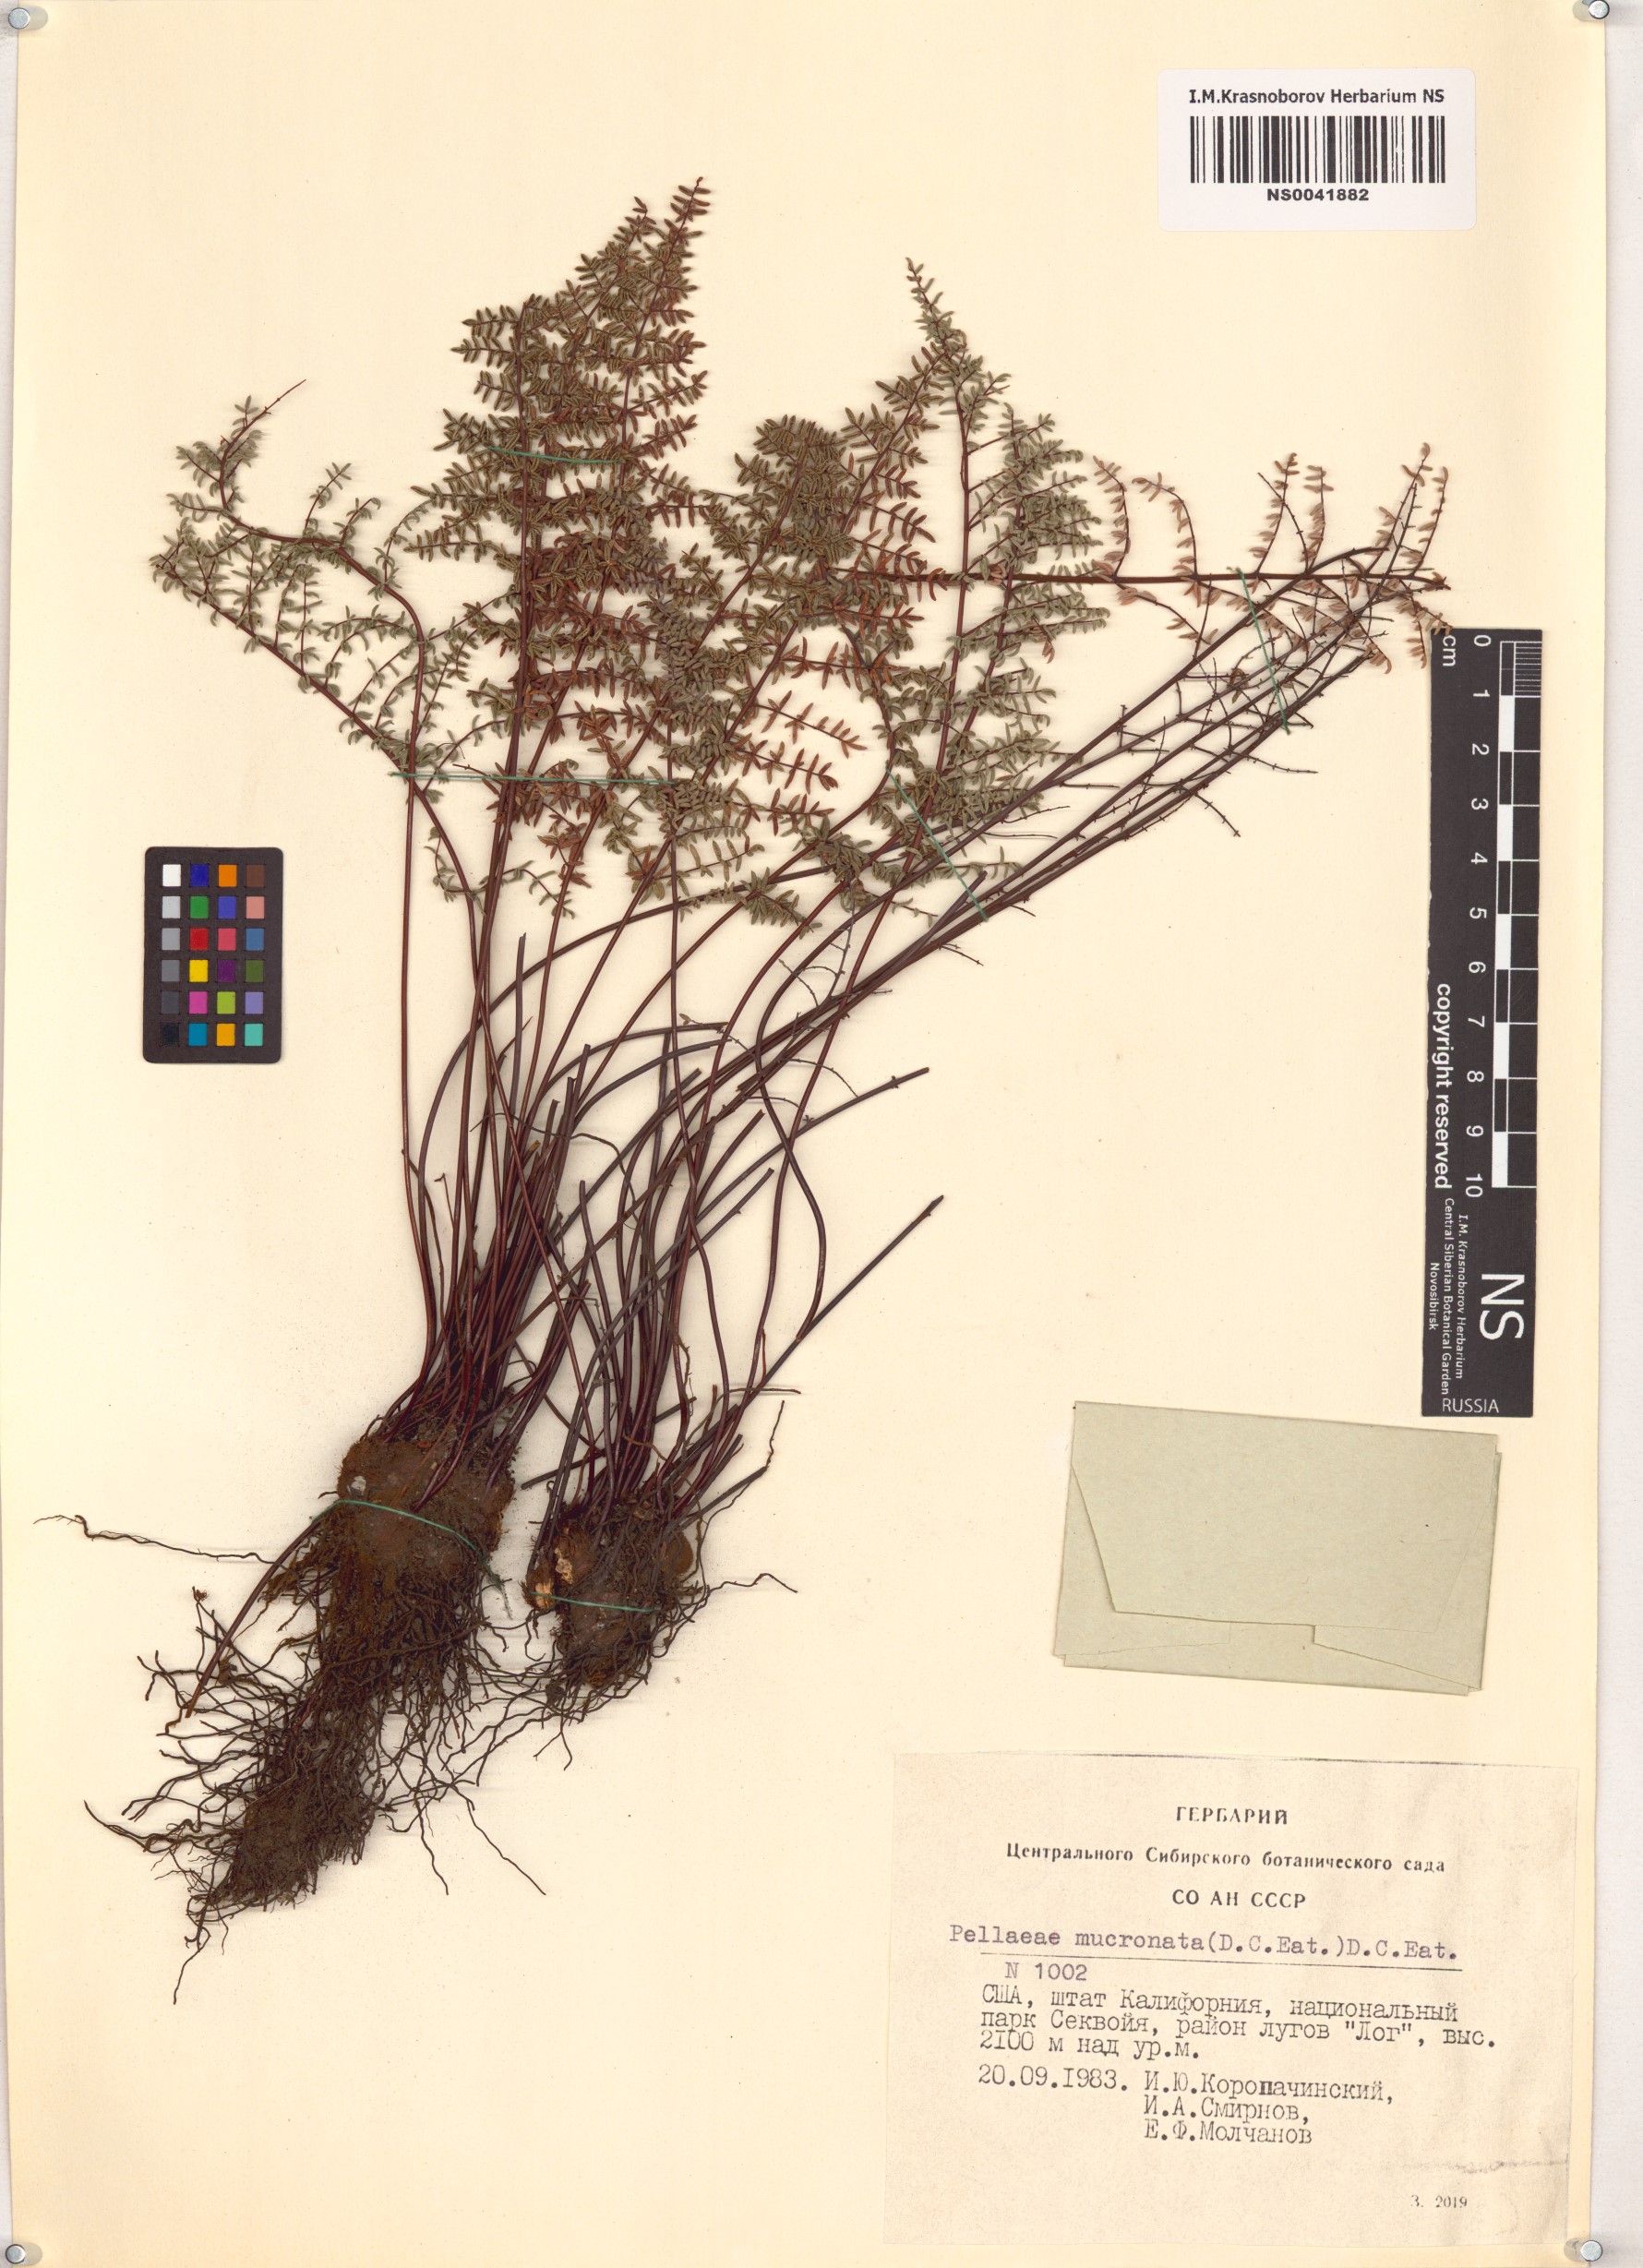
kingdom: Plantae
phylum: Tracheophyta
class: Polypodiopsida
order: Polypodiales
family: Pteridaceae
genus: Pellaea
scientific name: Pellaea mucronata
